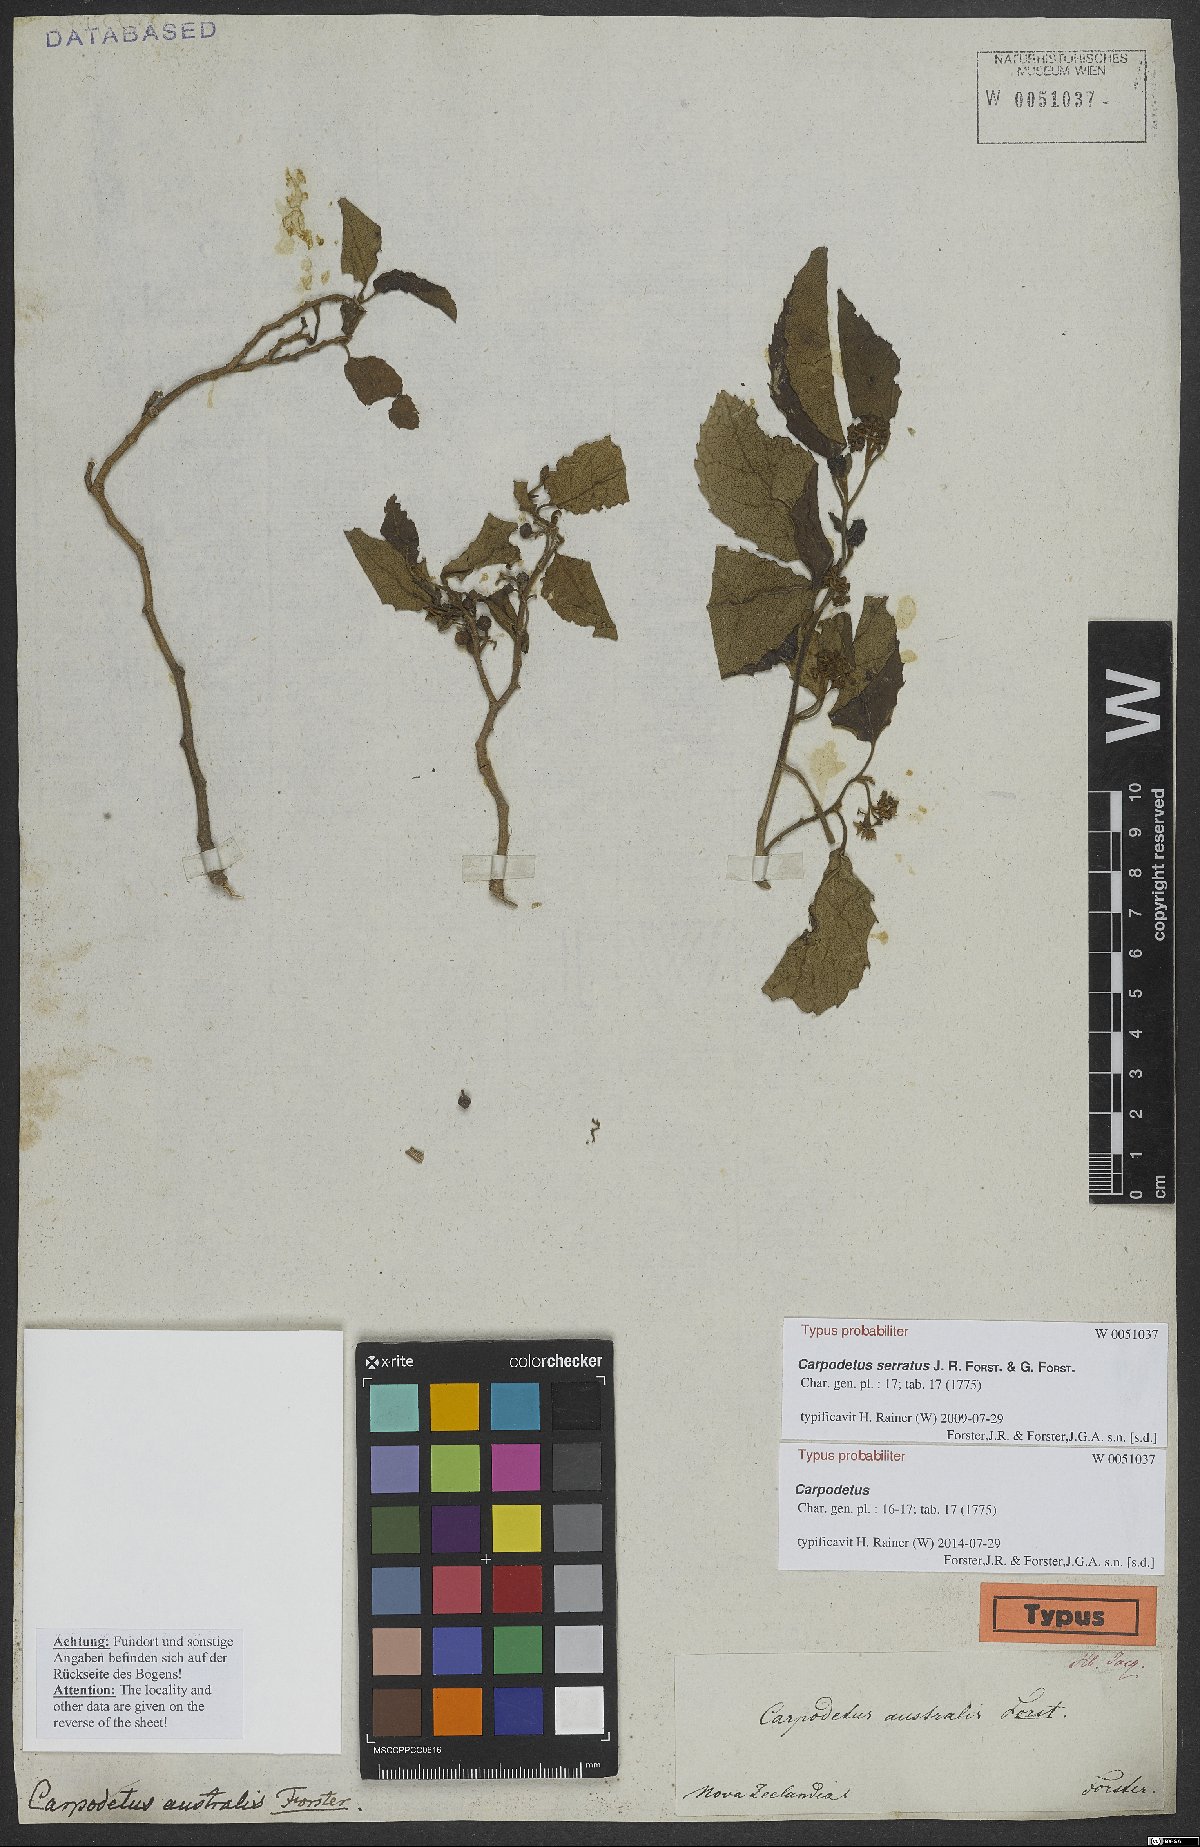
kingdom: Plantae
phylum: Tracheophyta
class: Magnoliopsida
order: Asterales
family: Rousseaceae
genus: Carpodetus
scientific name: Carpodetus serratus
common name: White mapau
